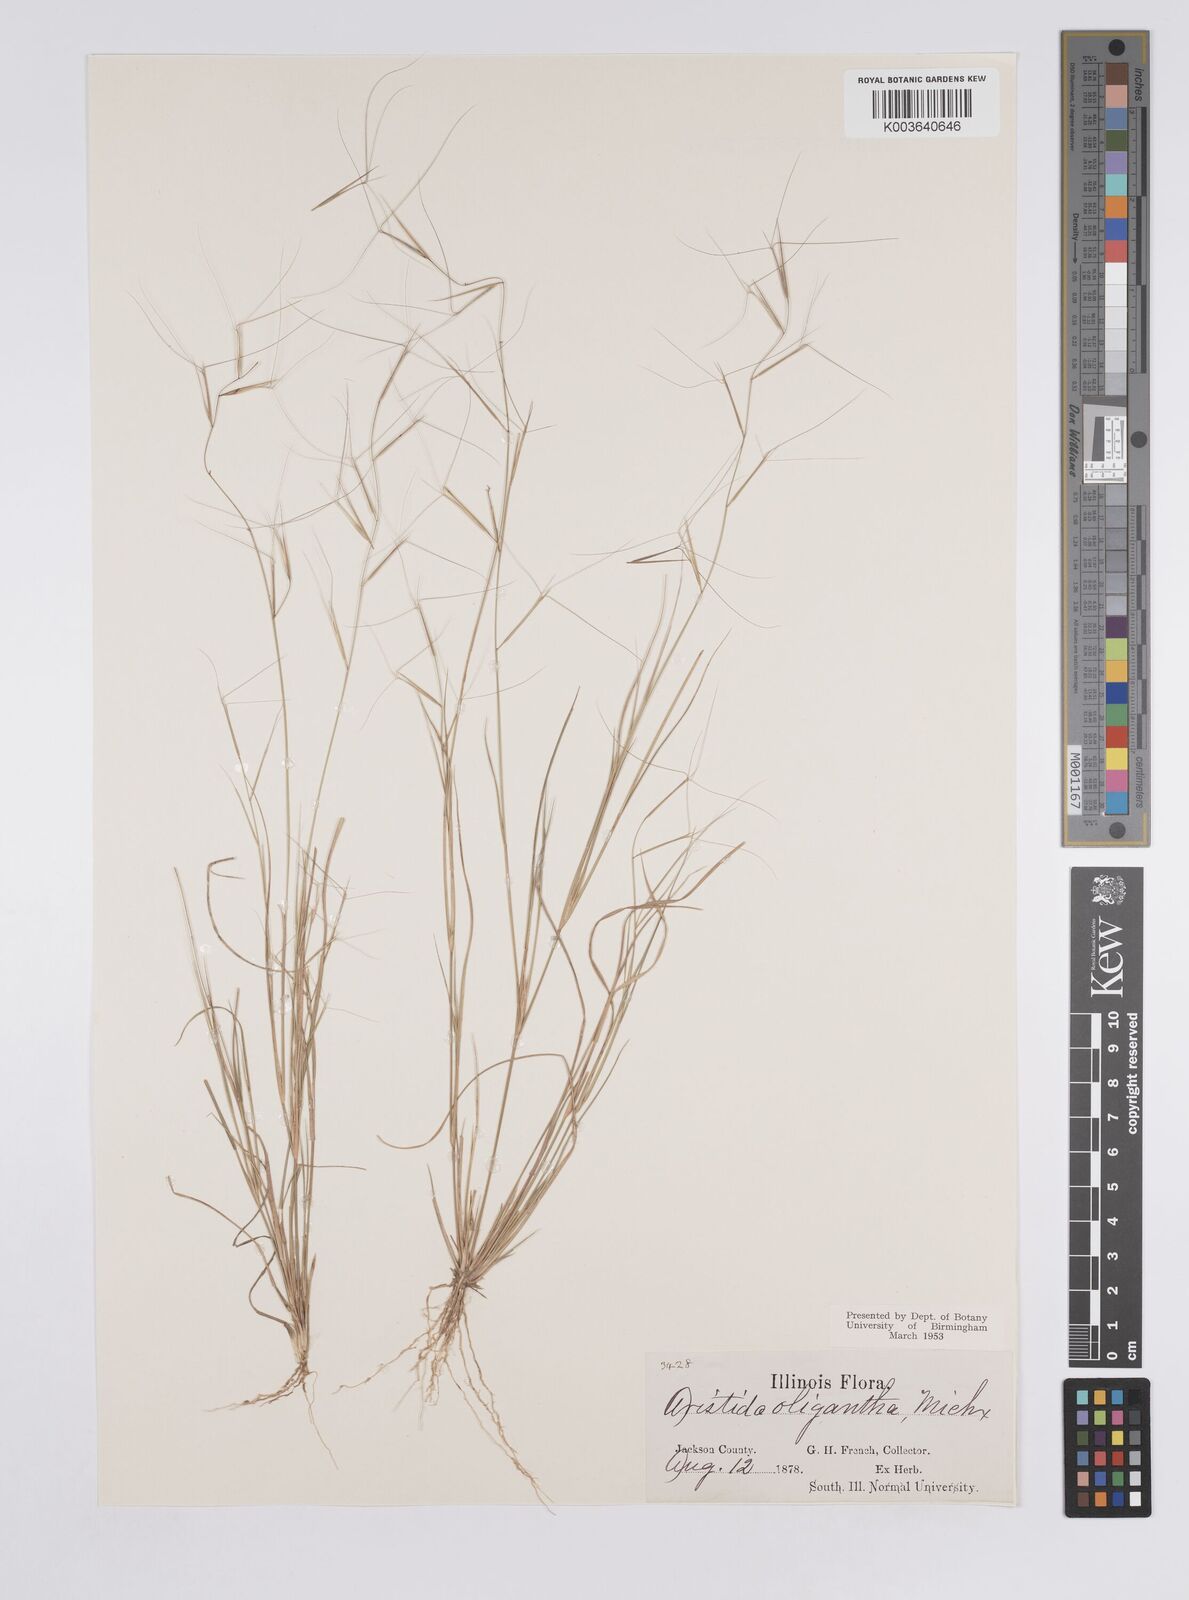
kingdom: Plantae
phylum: Tracheophyta
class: Liliopsida
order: Poales
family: Poaceae
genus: Aristida
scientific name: Aristida oligantha
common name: Few-flowered aristida
